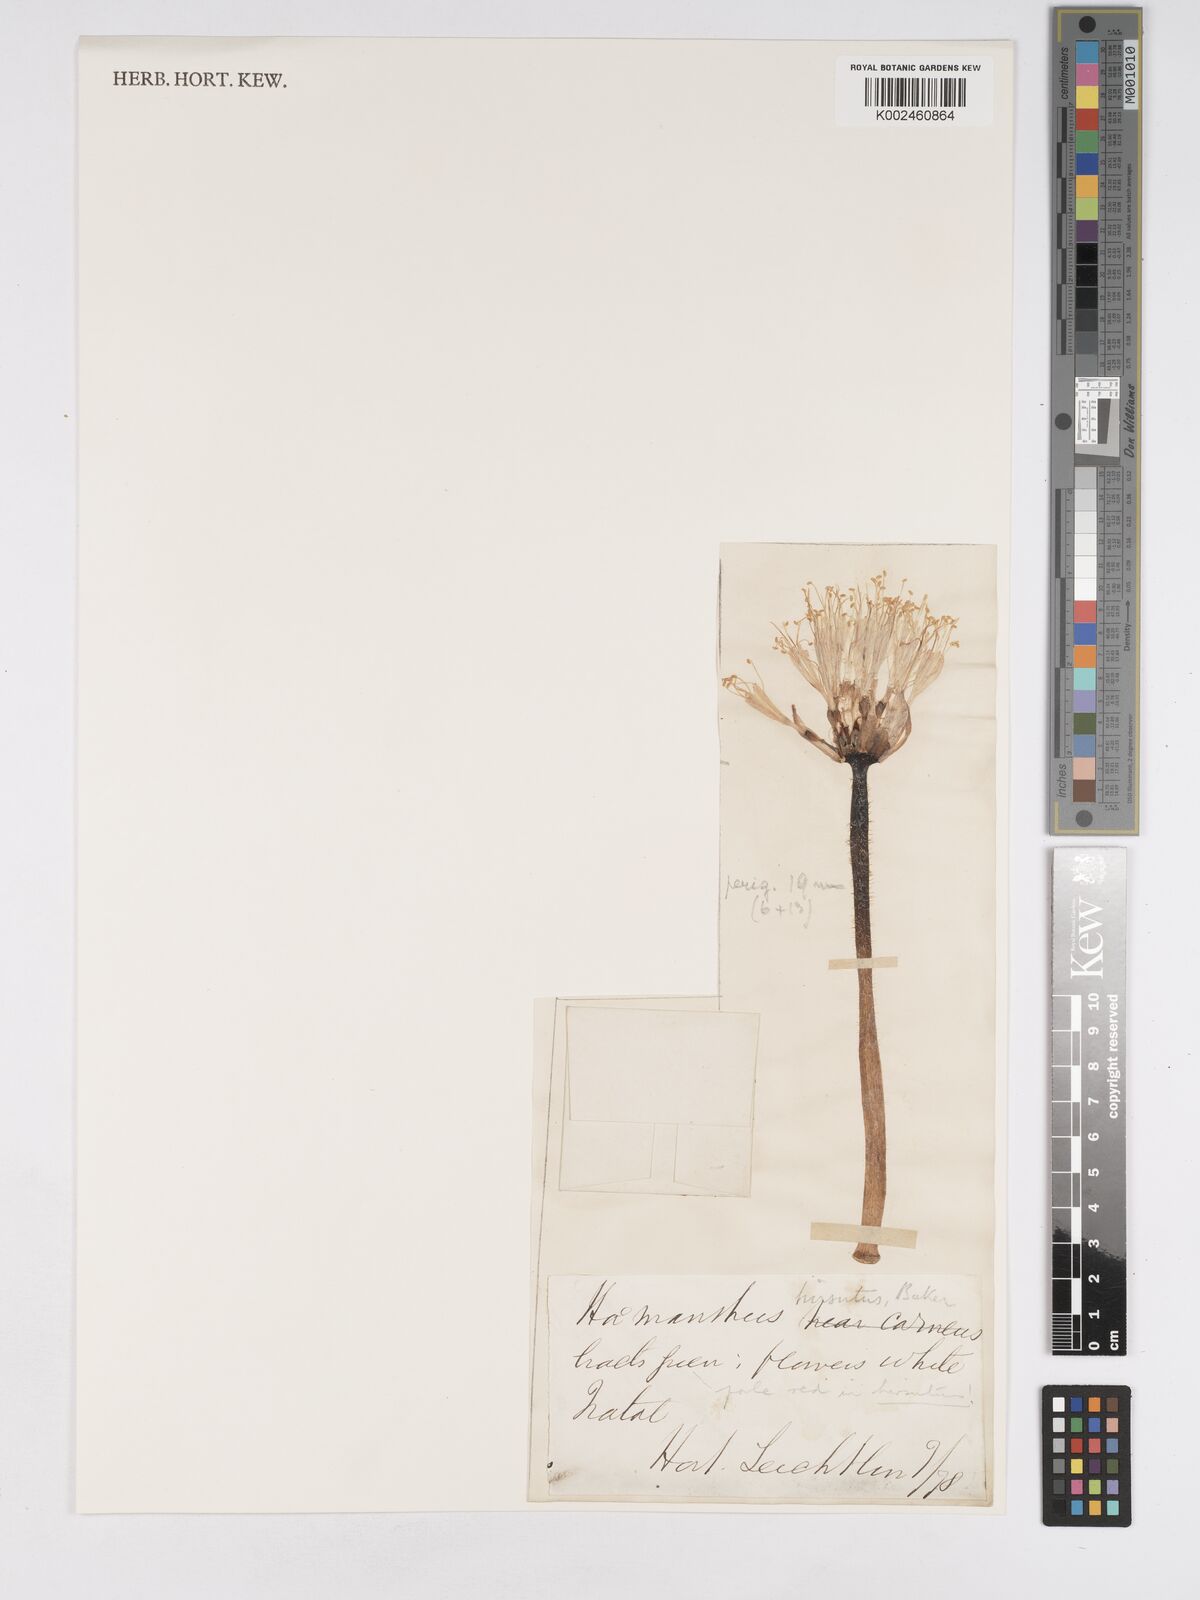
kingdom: Plantae
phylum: Tracheophyta
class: Liliopsida
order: Asparagales
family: Amaryllidaceae
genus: Haemanthus
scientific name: Haemanthus humilis
